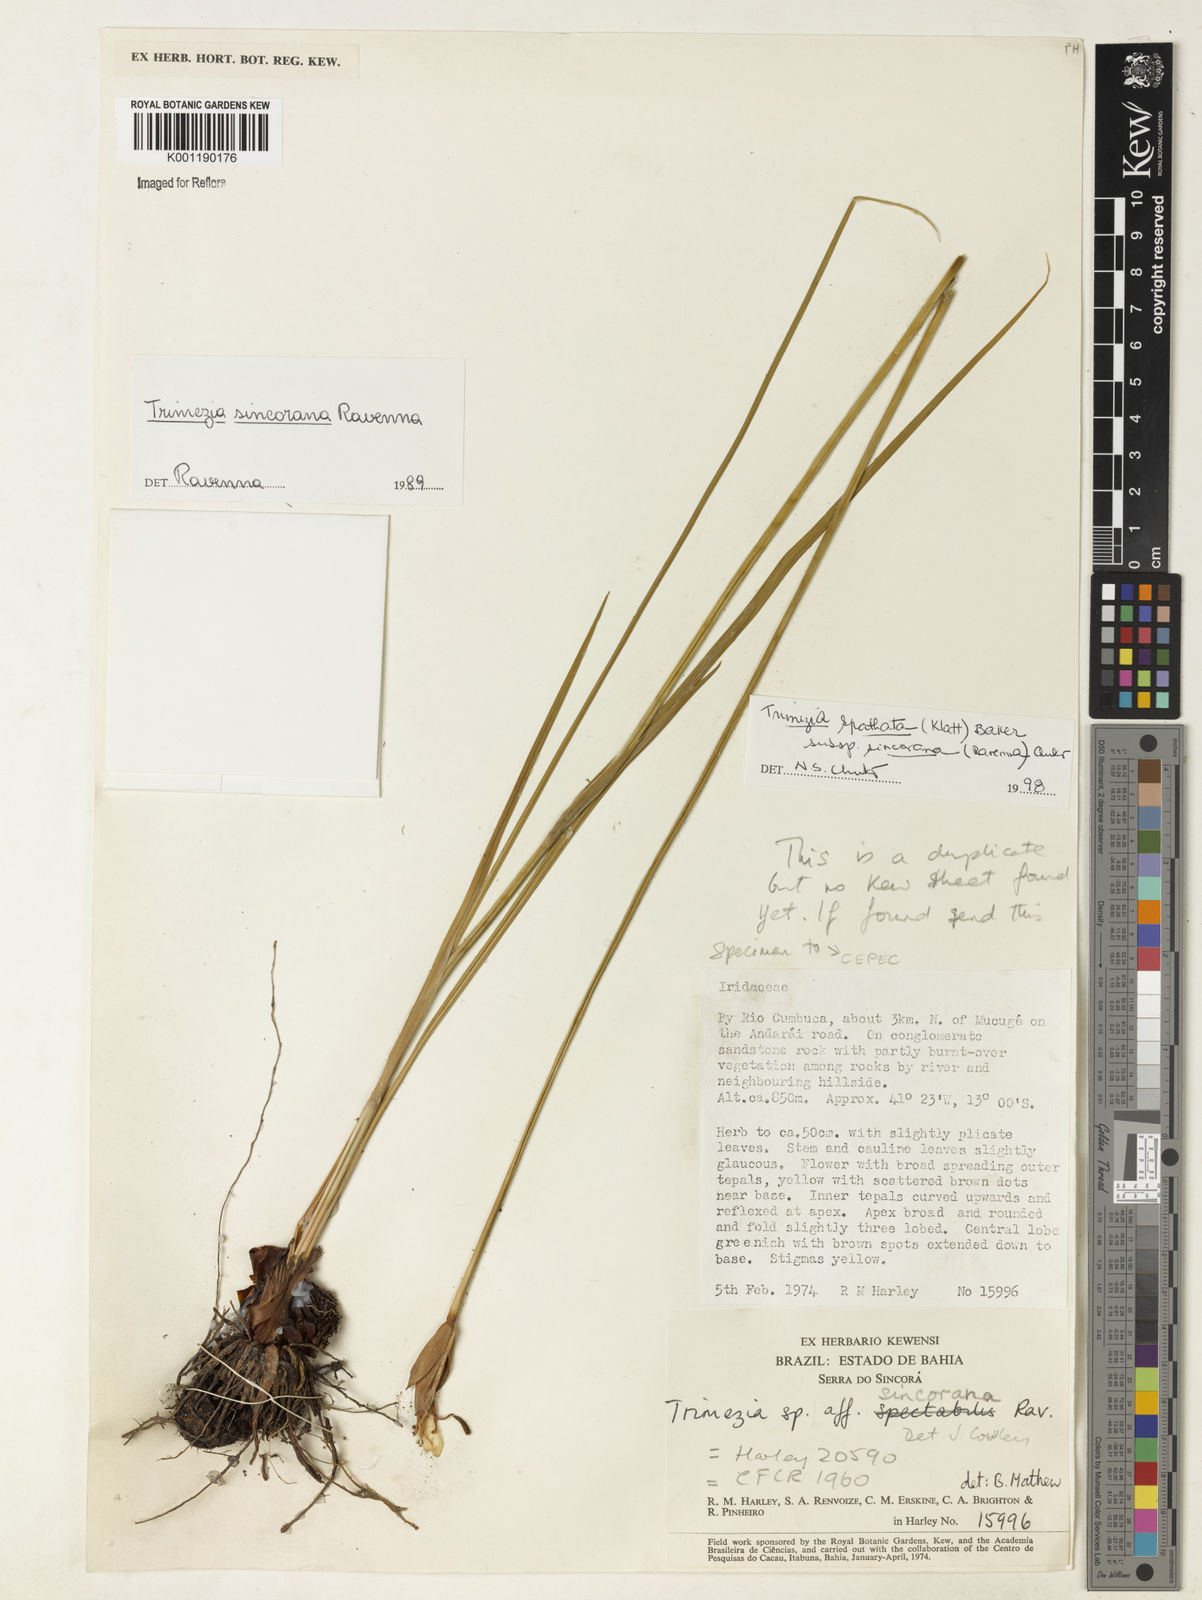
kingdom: Plantae
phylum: Tracheophyta
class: Liliopsida
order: Asparagales
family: Iridaceae
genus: Trimezia
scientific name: Trimezia spathata
